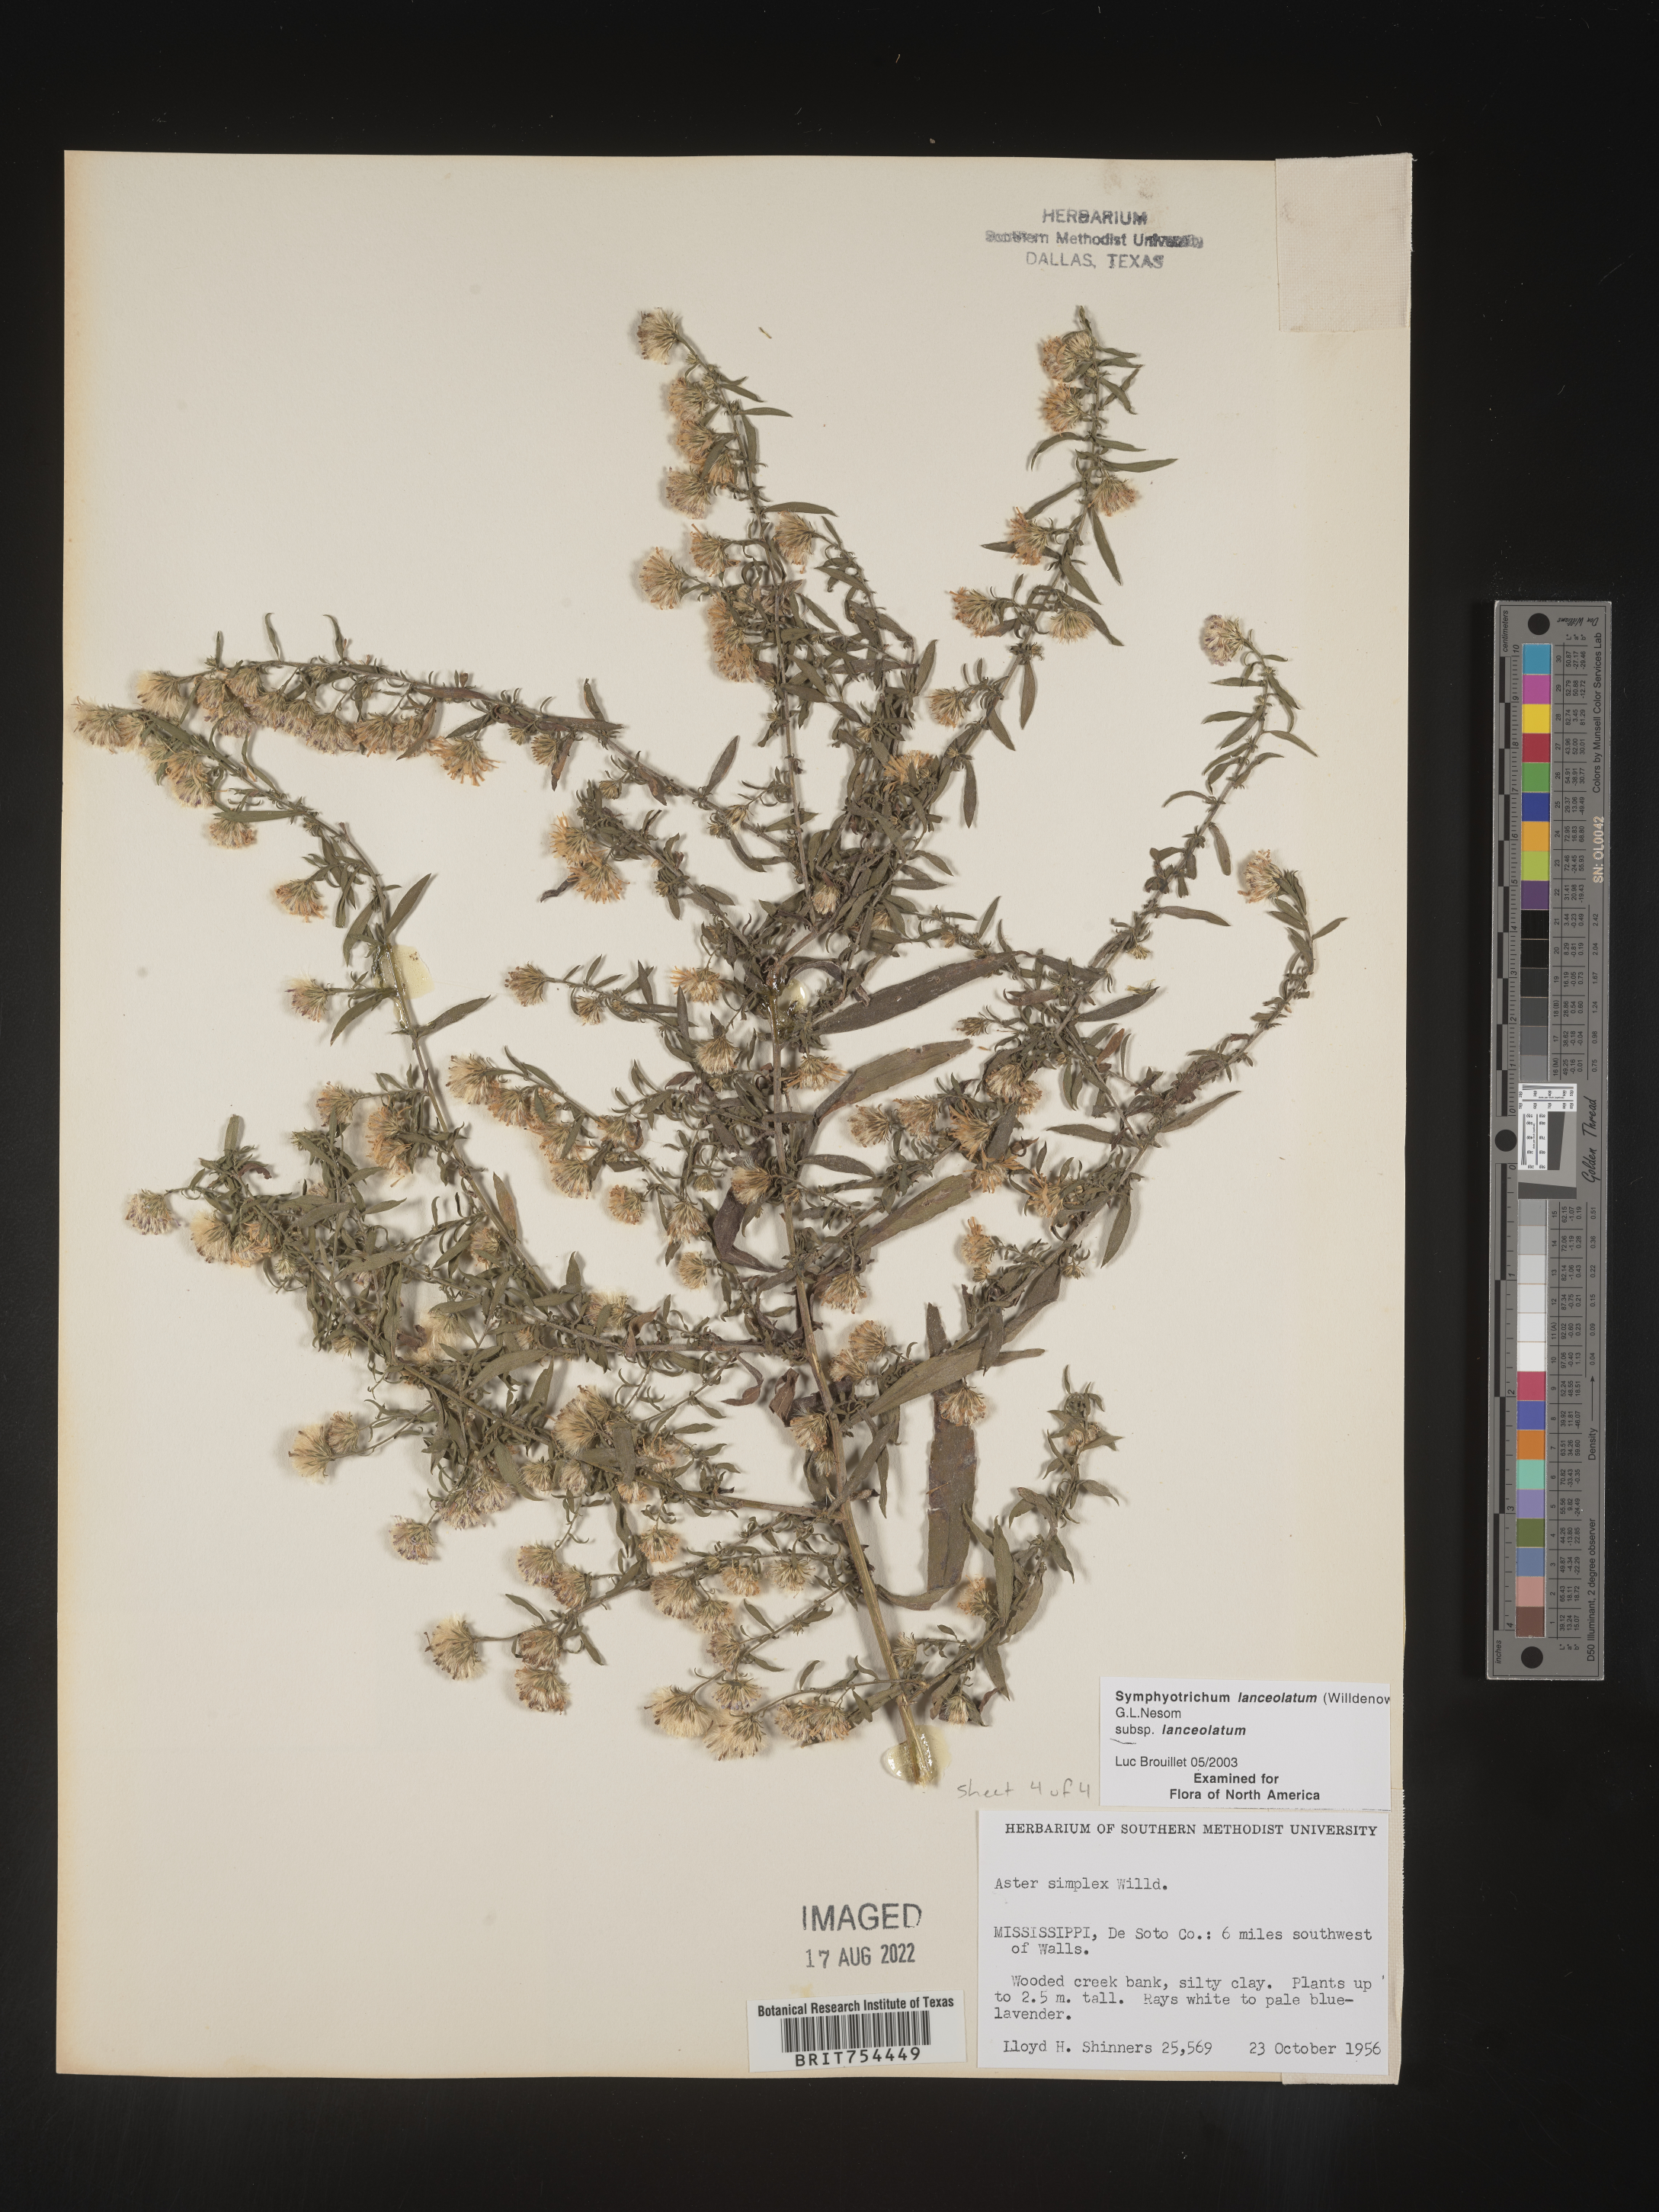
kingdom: Plantae
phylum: Tracheophyta
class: Magnoliopsida
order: Asterales
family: Asteraceae
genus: Symphyotrichum
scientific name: Symphyotrichum lanceolatum
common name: Panicled aster
